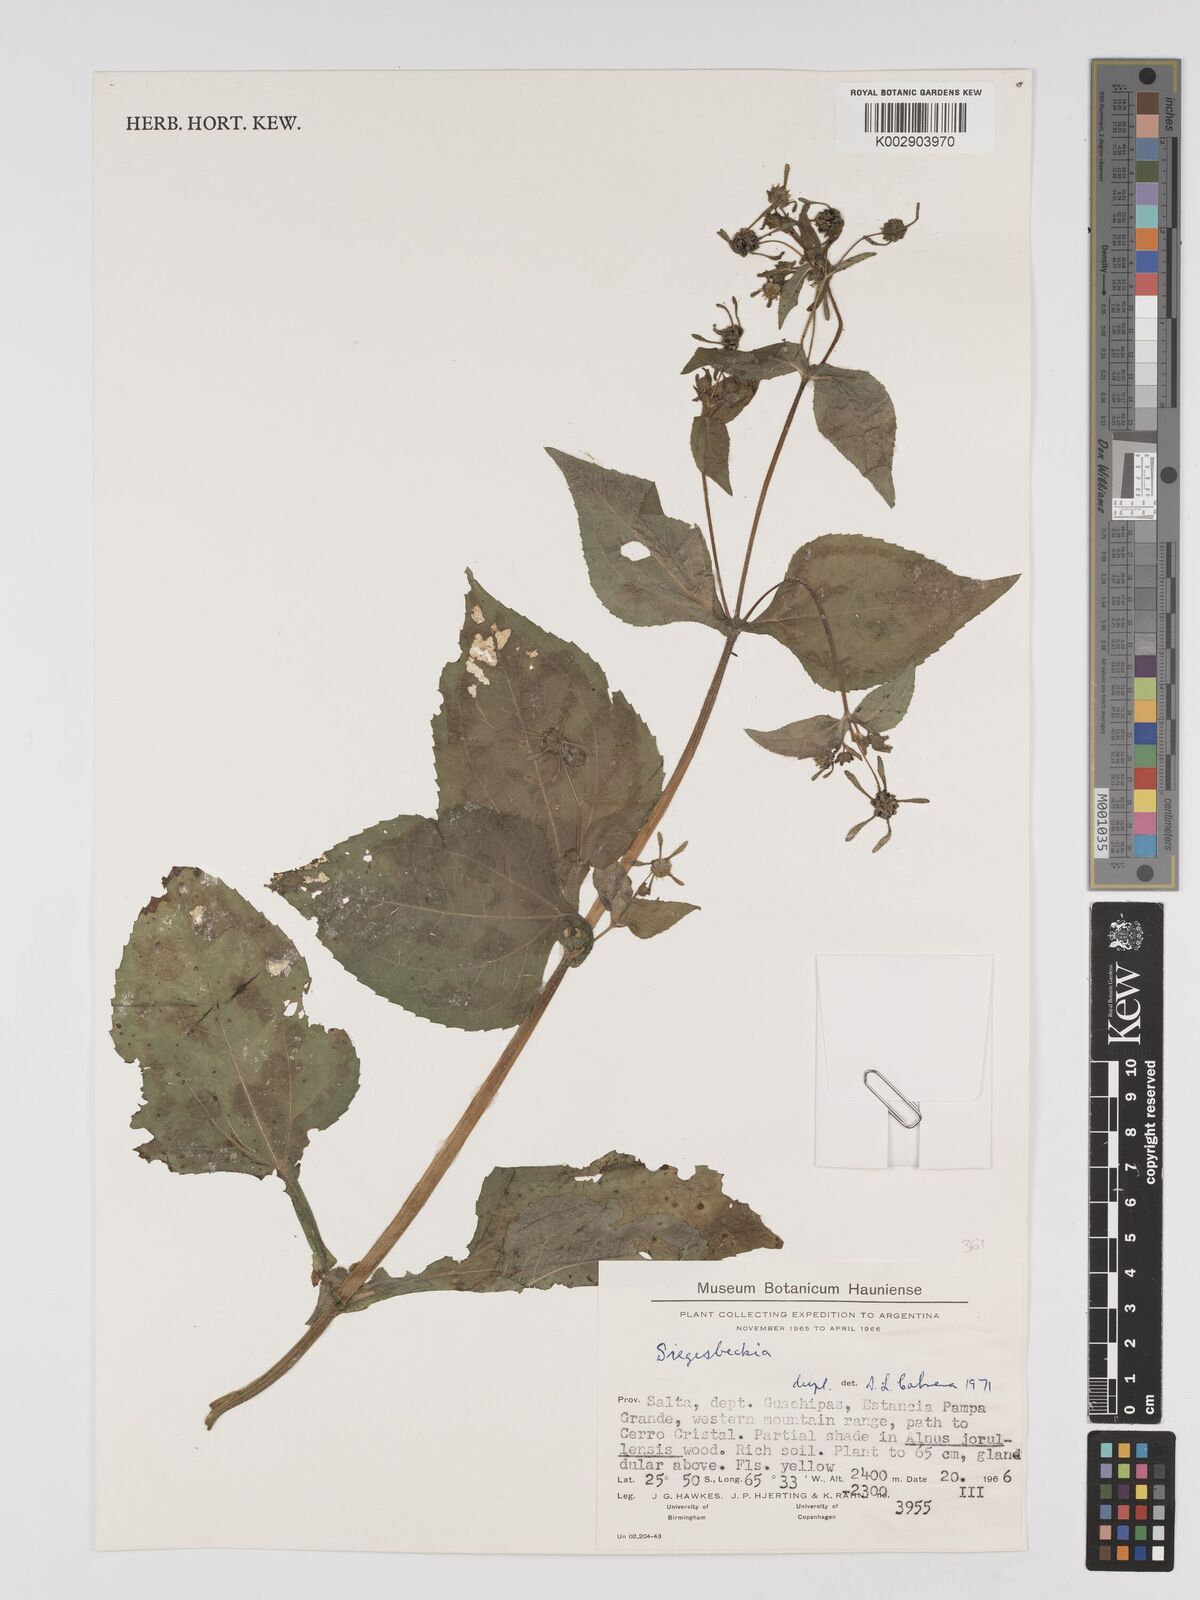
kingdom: Plantae
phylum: Tracheophyta
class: Magnoliopsida
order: Asterales
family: Asteraceae
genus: Sigesbeckia
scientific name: Sigesbeckia
